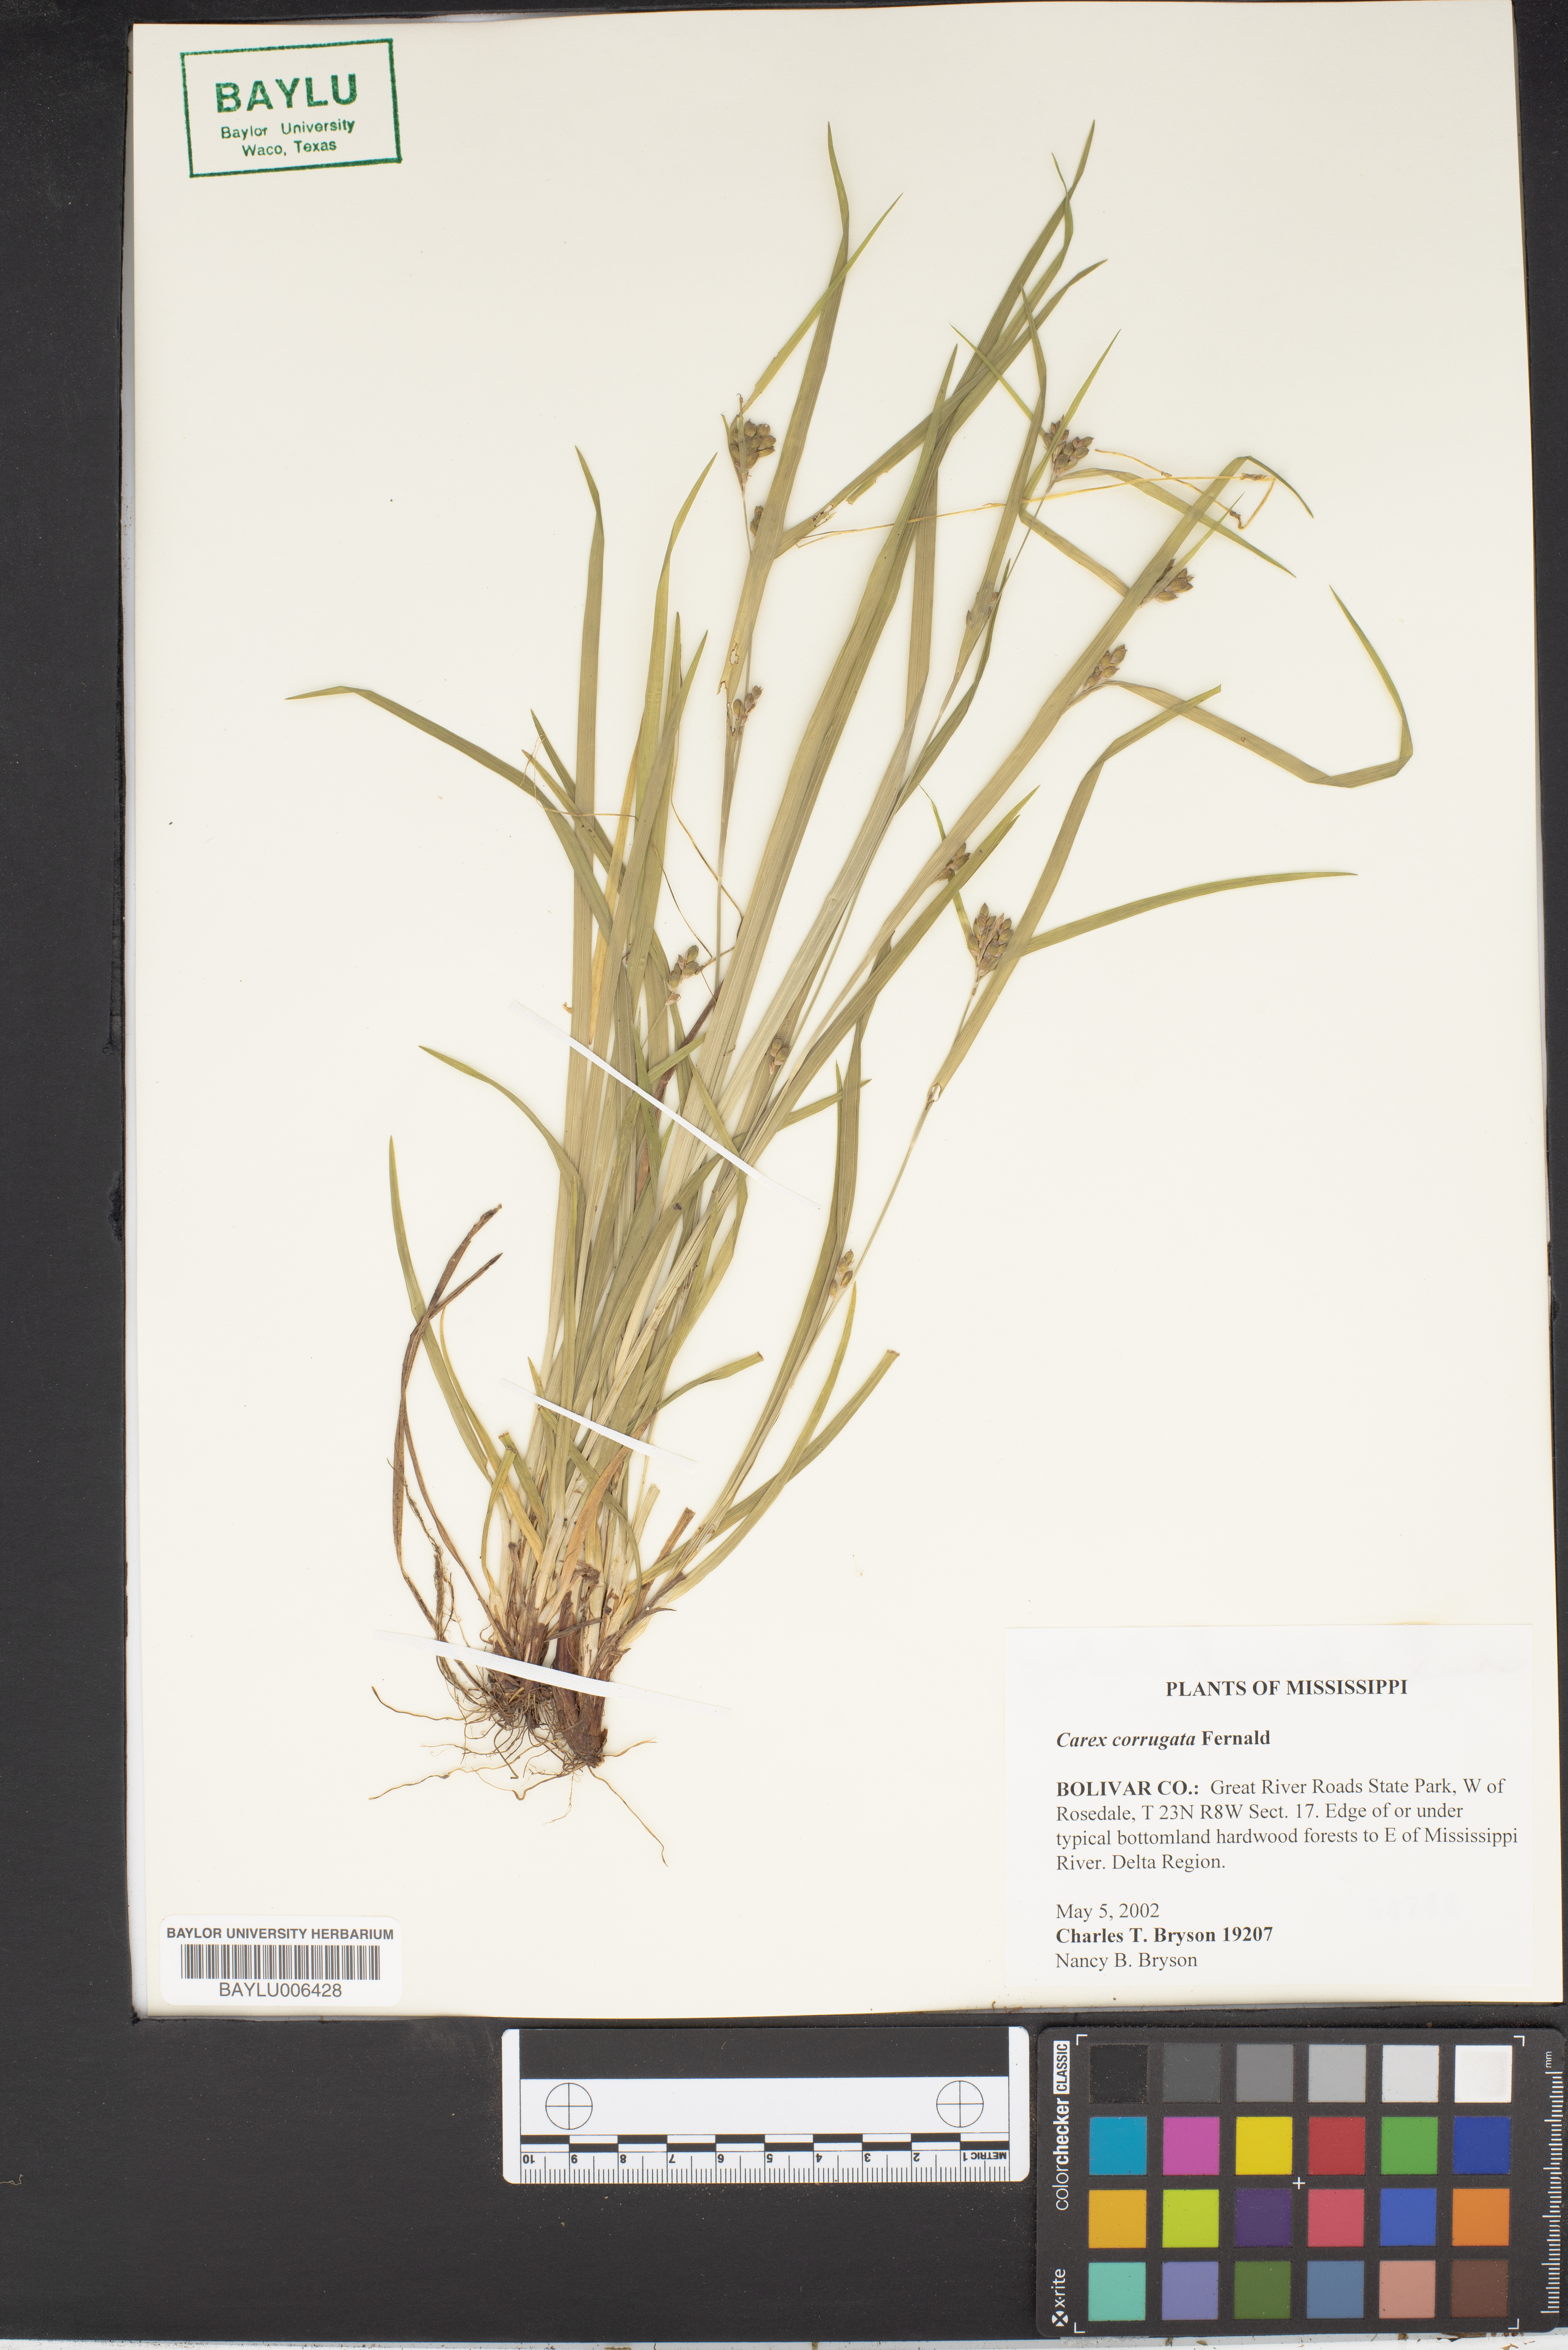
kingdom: Plantae
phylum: Tracheophyta
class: Liliopsida
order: Poales
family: Cyperaceae
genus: Carex
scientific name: Carex corrugata
